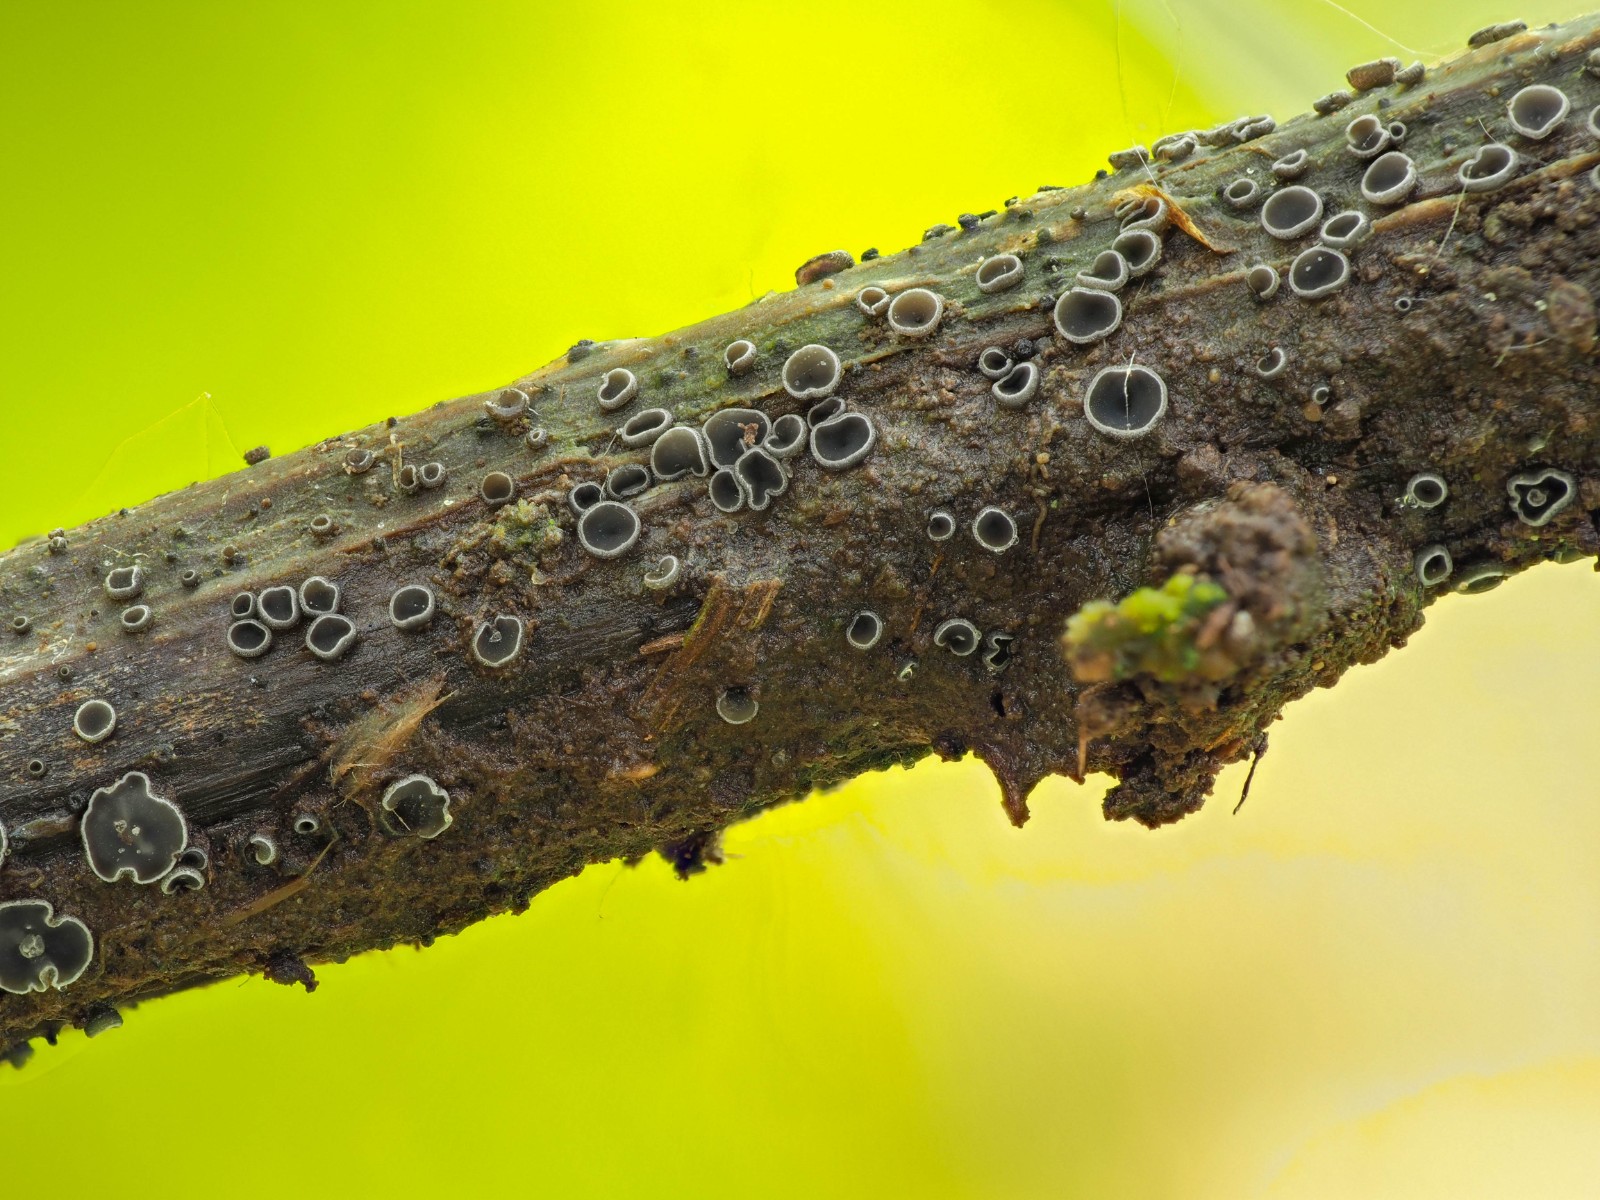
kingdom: Fungi
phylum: Ascomycota
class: Leotiomycetes
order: Helotiales
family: Dermateaceae
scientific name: Dermateaceae
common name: gråskivefamilien
